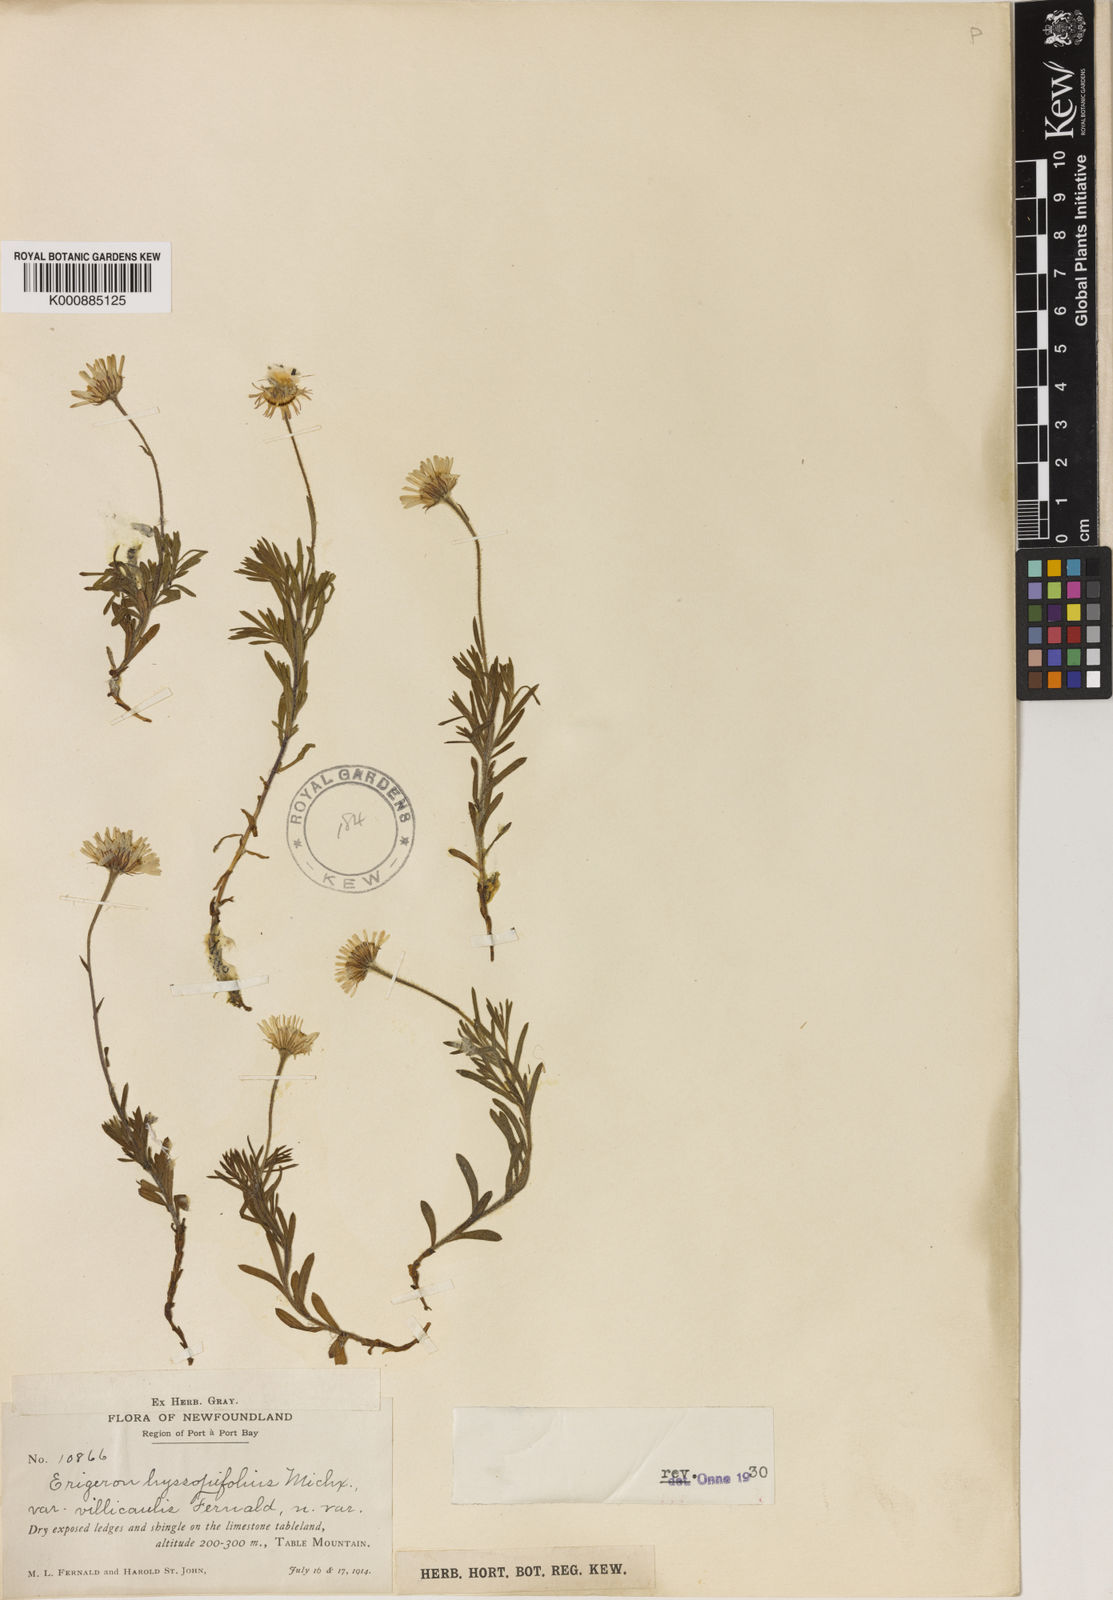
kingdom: Plantae
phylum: Tracheophyta
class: Magnoliopsida
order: Asterales
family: Asteraceae
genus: Erigeron
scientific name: Erigeron hyssopifolius
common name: Daisy fleabane
